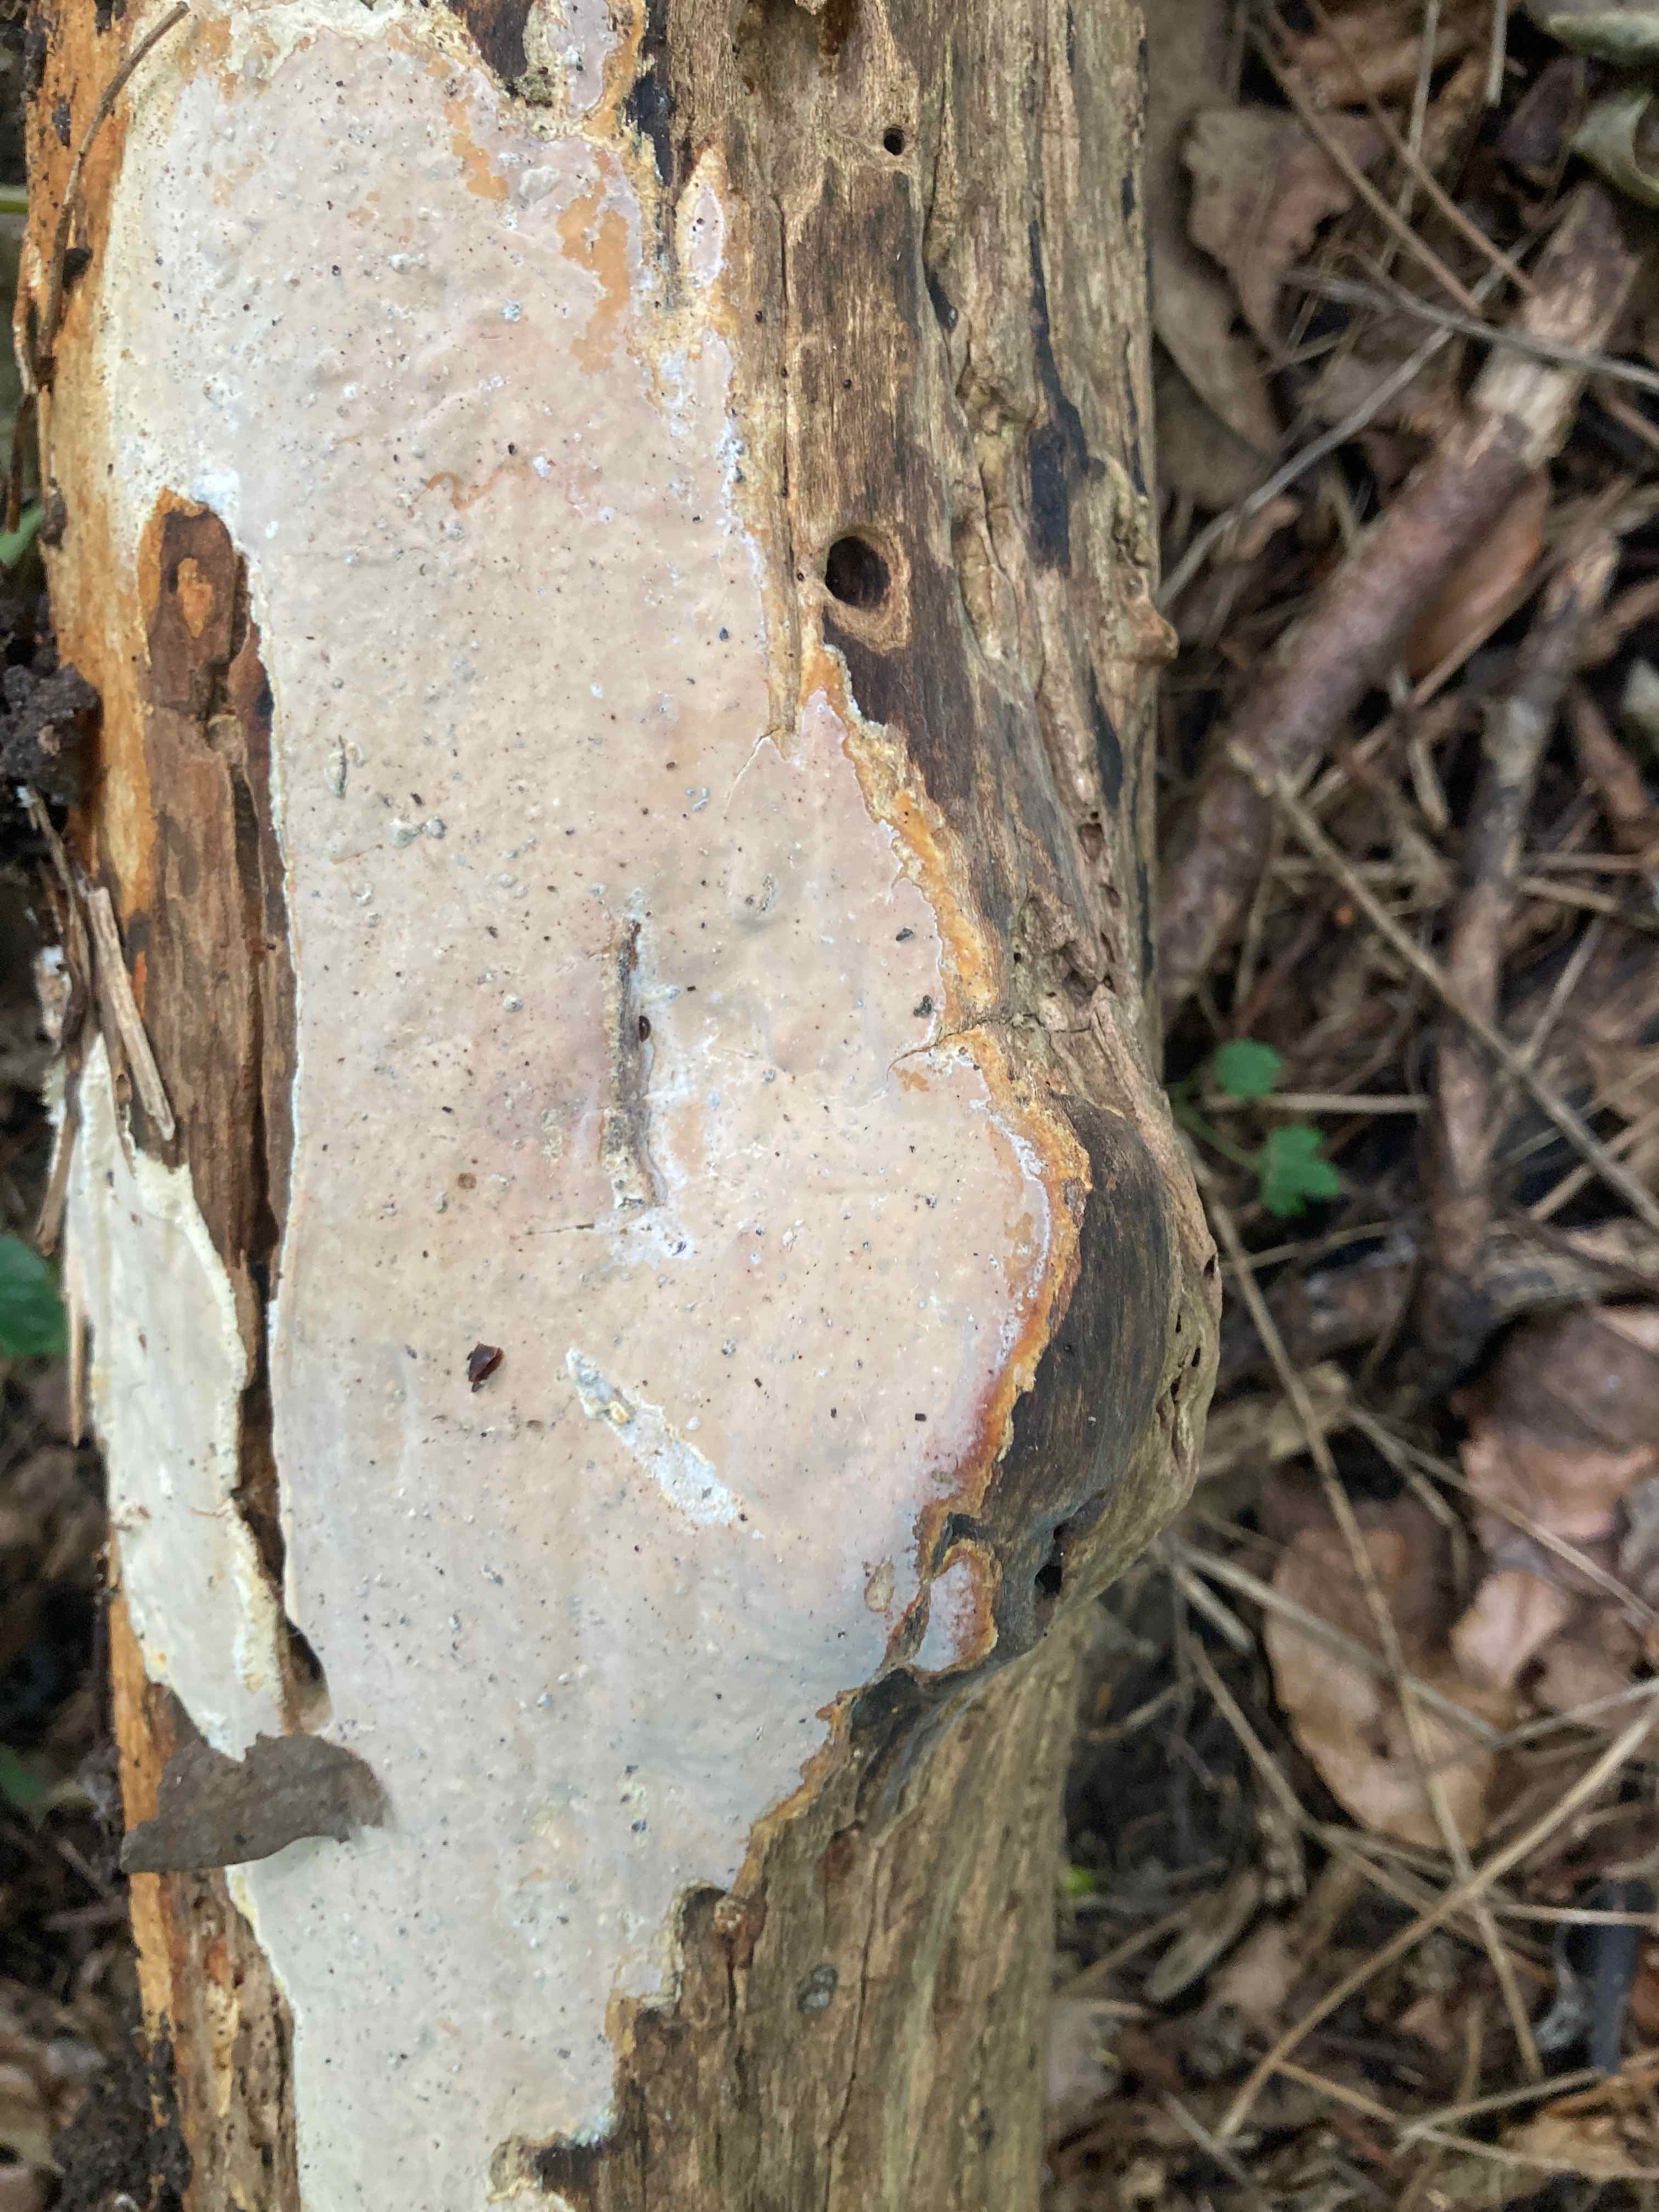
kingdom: Fungi
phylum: Basidiomycota
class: Agaricomycetes
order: Russulales
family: Peniophoraceae
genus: Scytinostroma
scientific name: Scytinostroma hemidichophyticum
